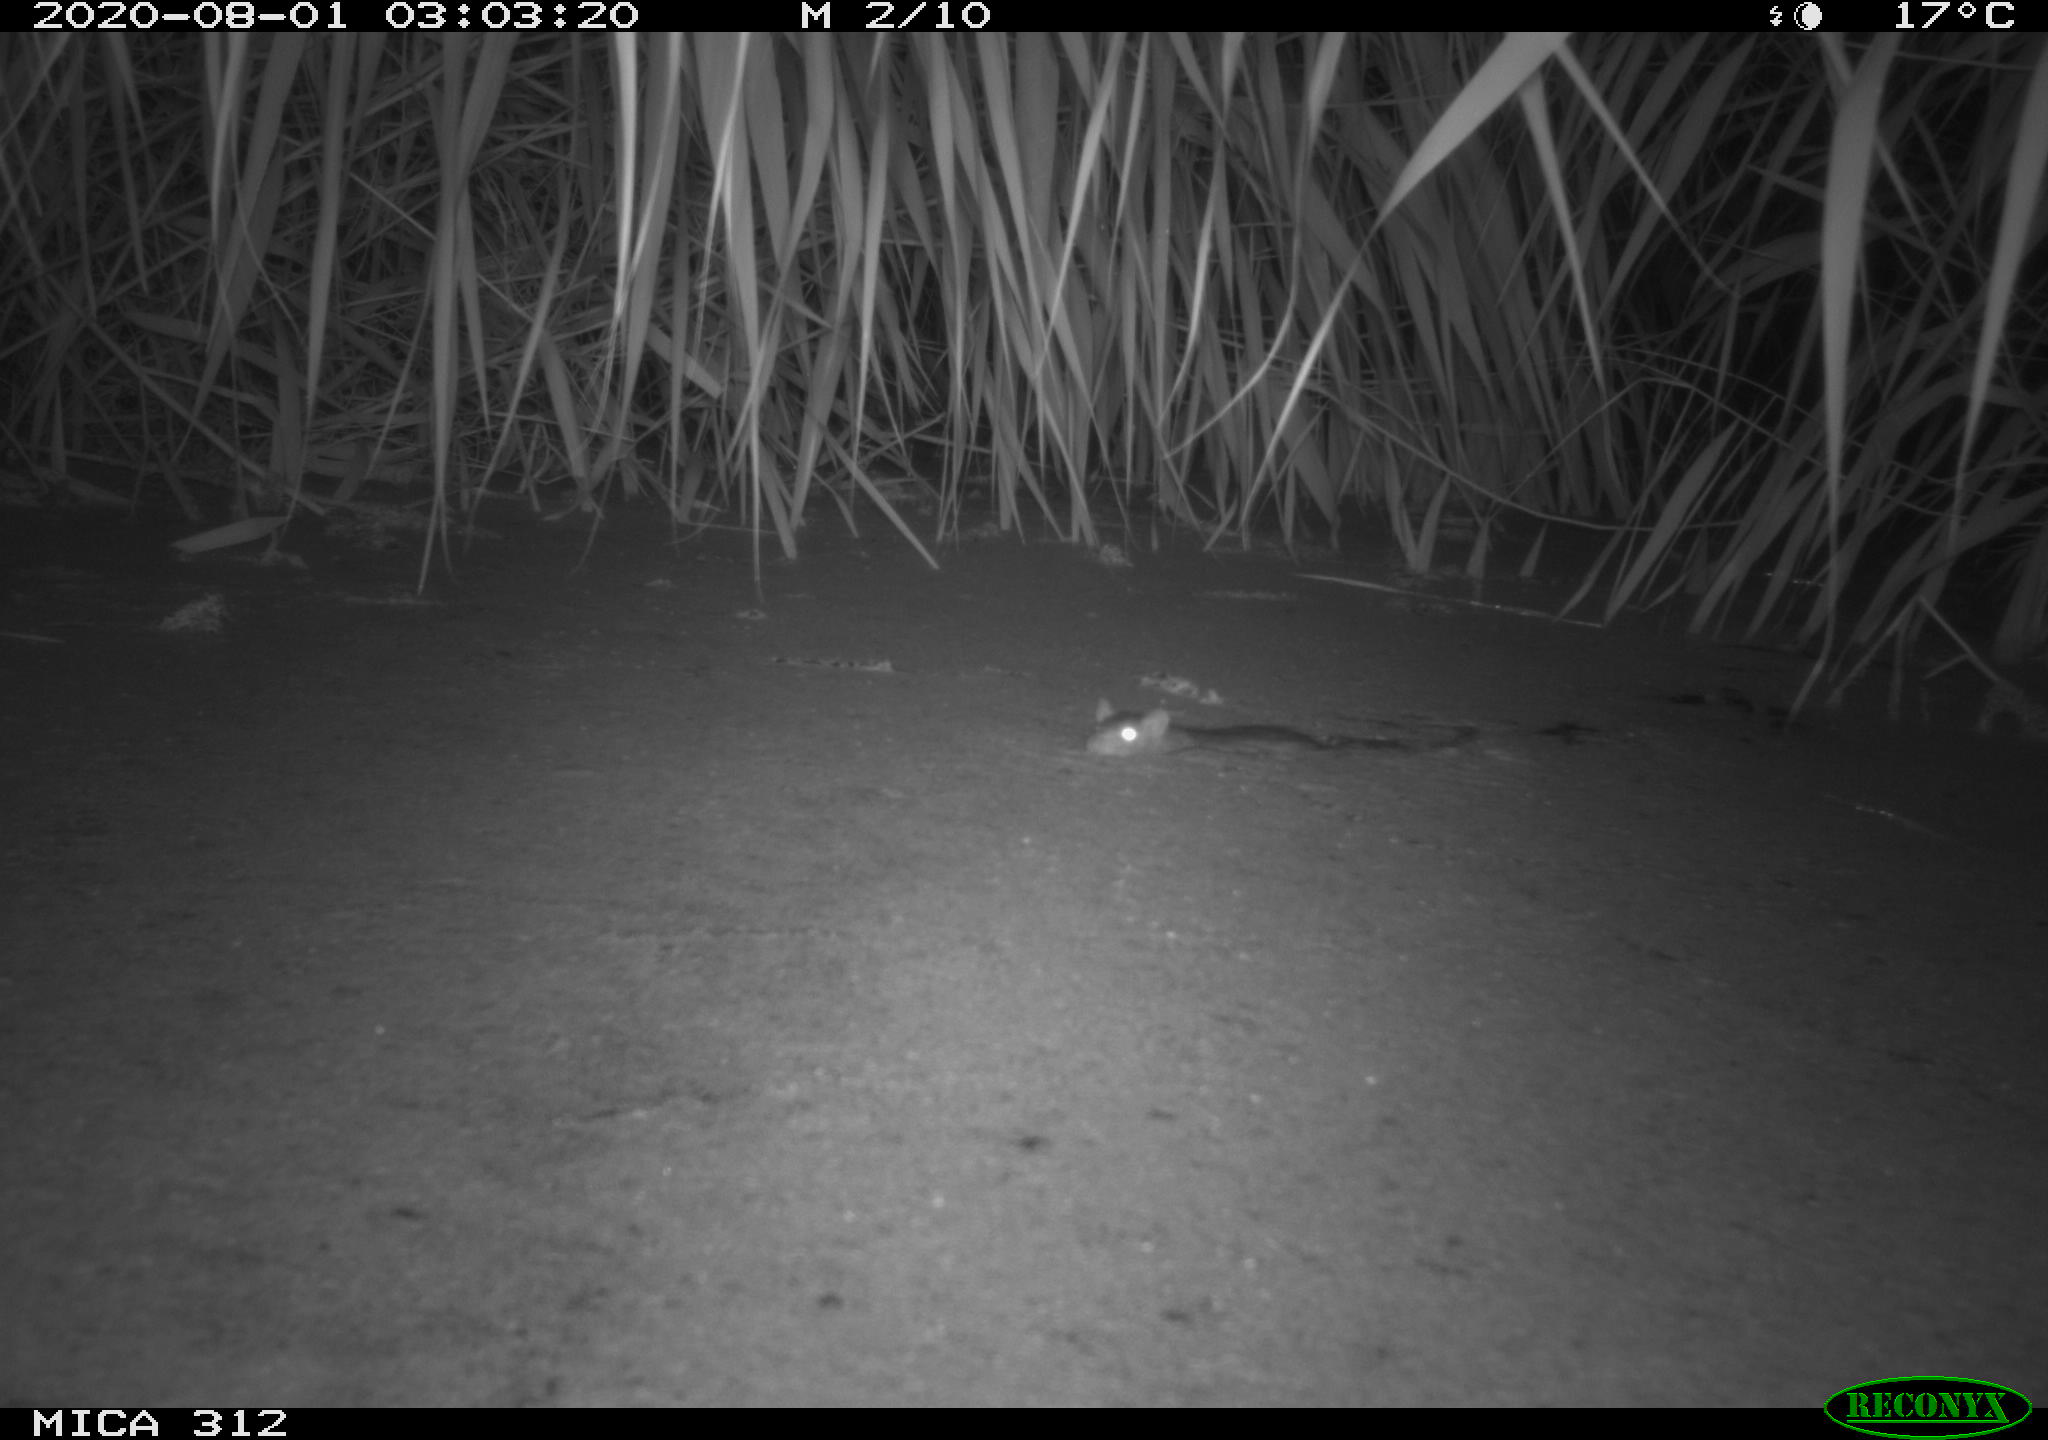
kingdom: Animalia
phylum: Chordata
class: Mammalia
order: Rodentia
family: Muridae
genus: Rattus
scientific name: Rattus norvegicus
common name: Brown rat
